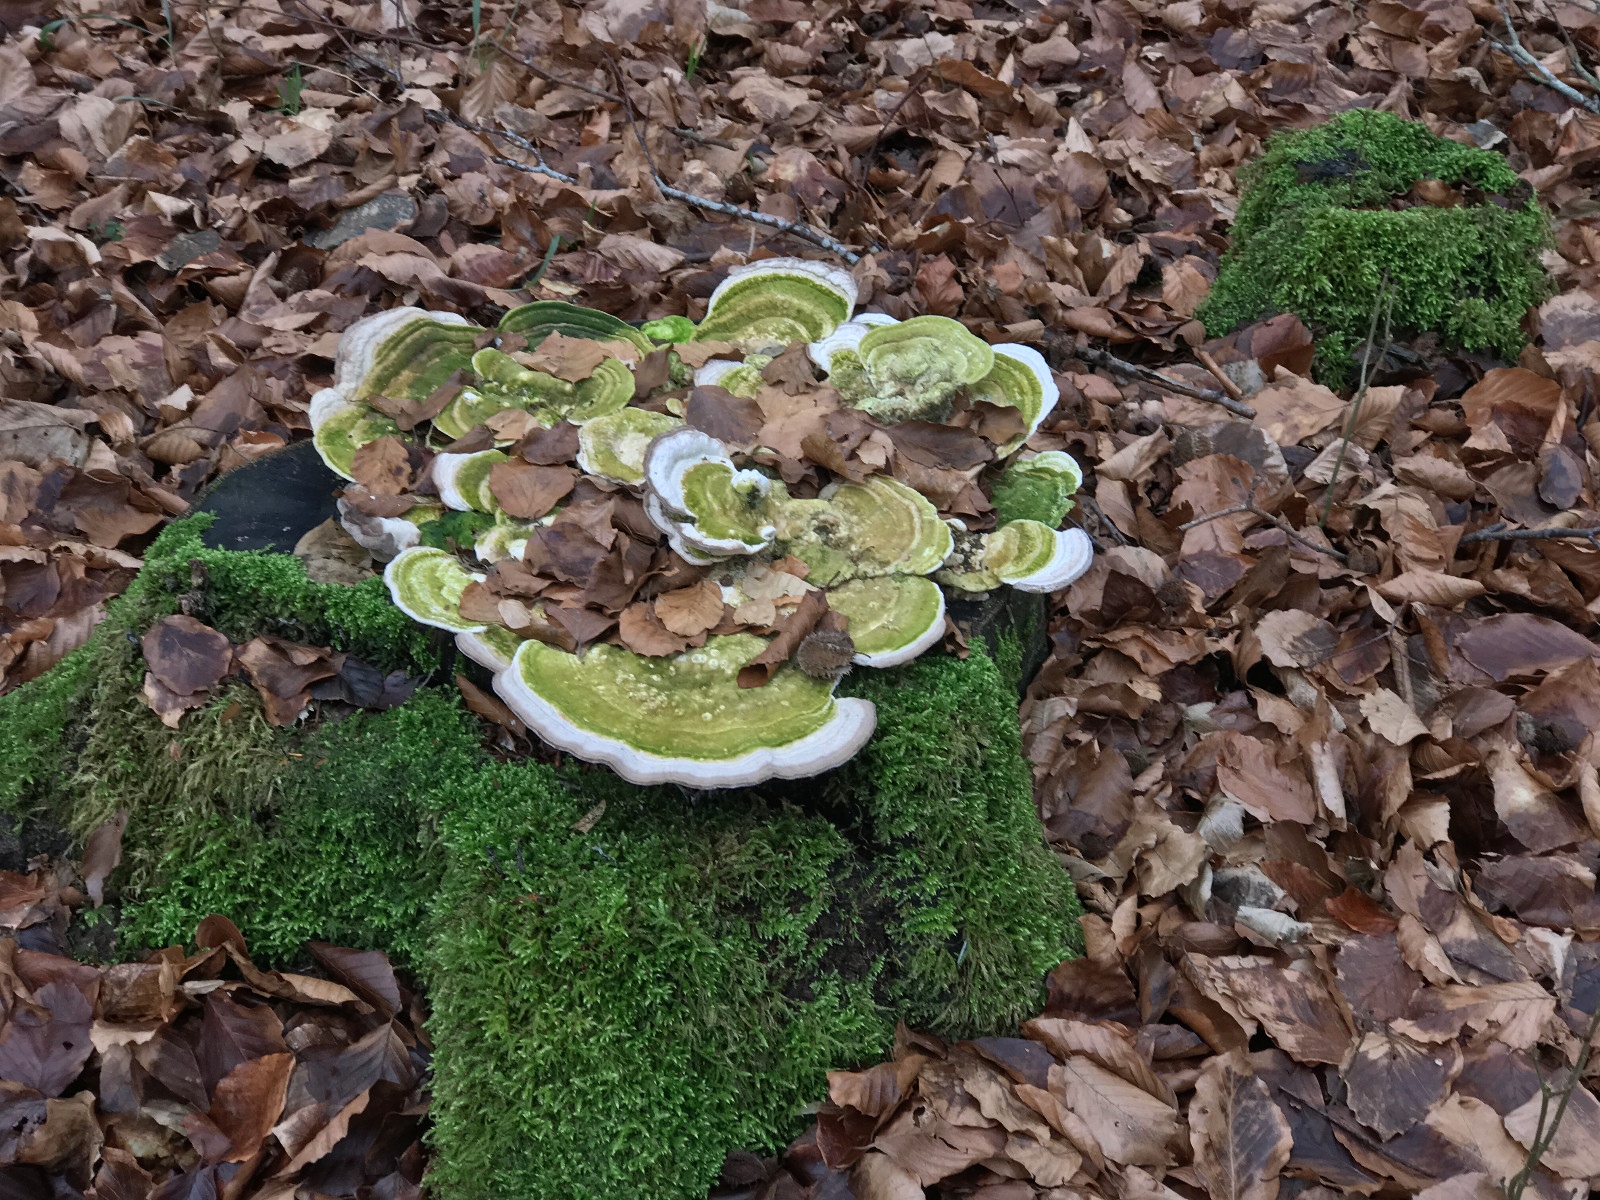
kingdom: Fungi
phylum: Basidiomycota
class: Agaricomycetes
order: Polyporales
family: Polyporaceae
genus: Trametes
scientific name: Trametes gibbosa
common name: puklet læderporesvamp
